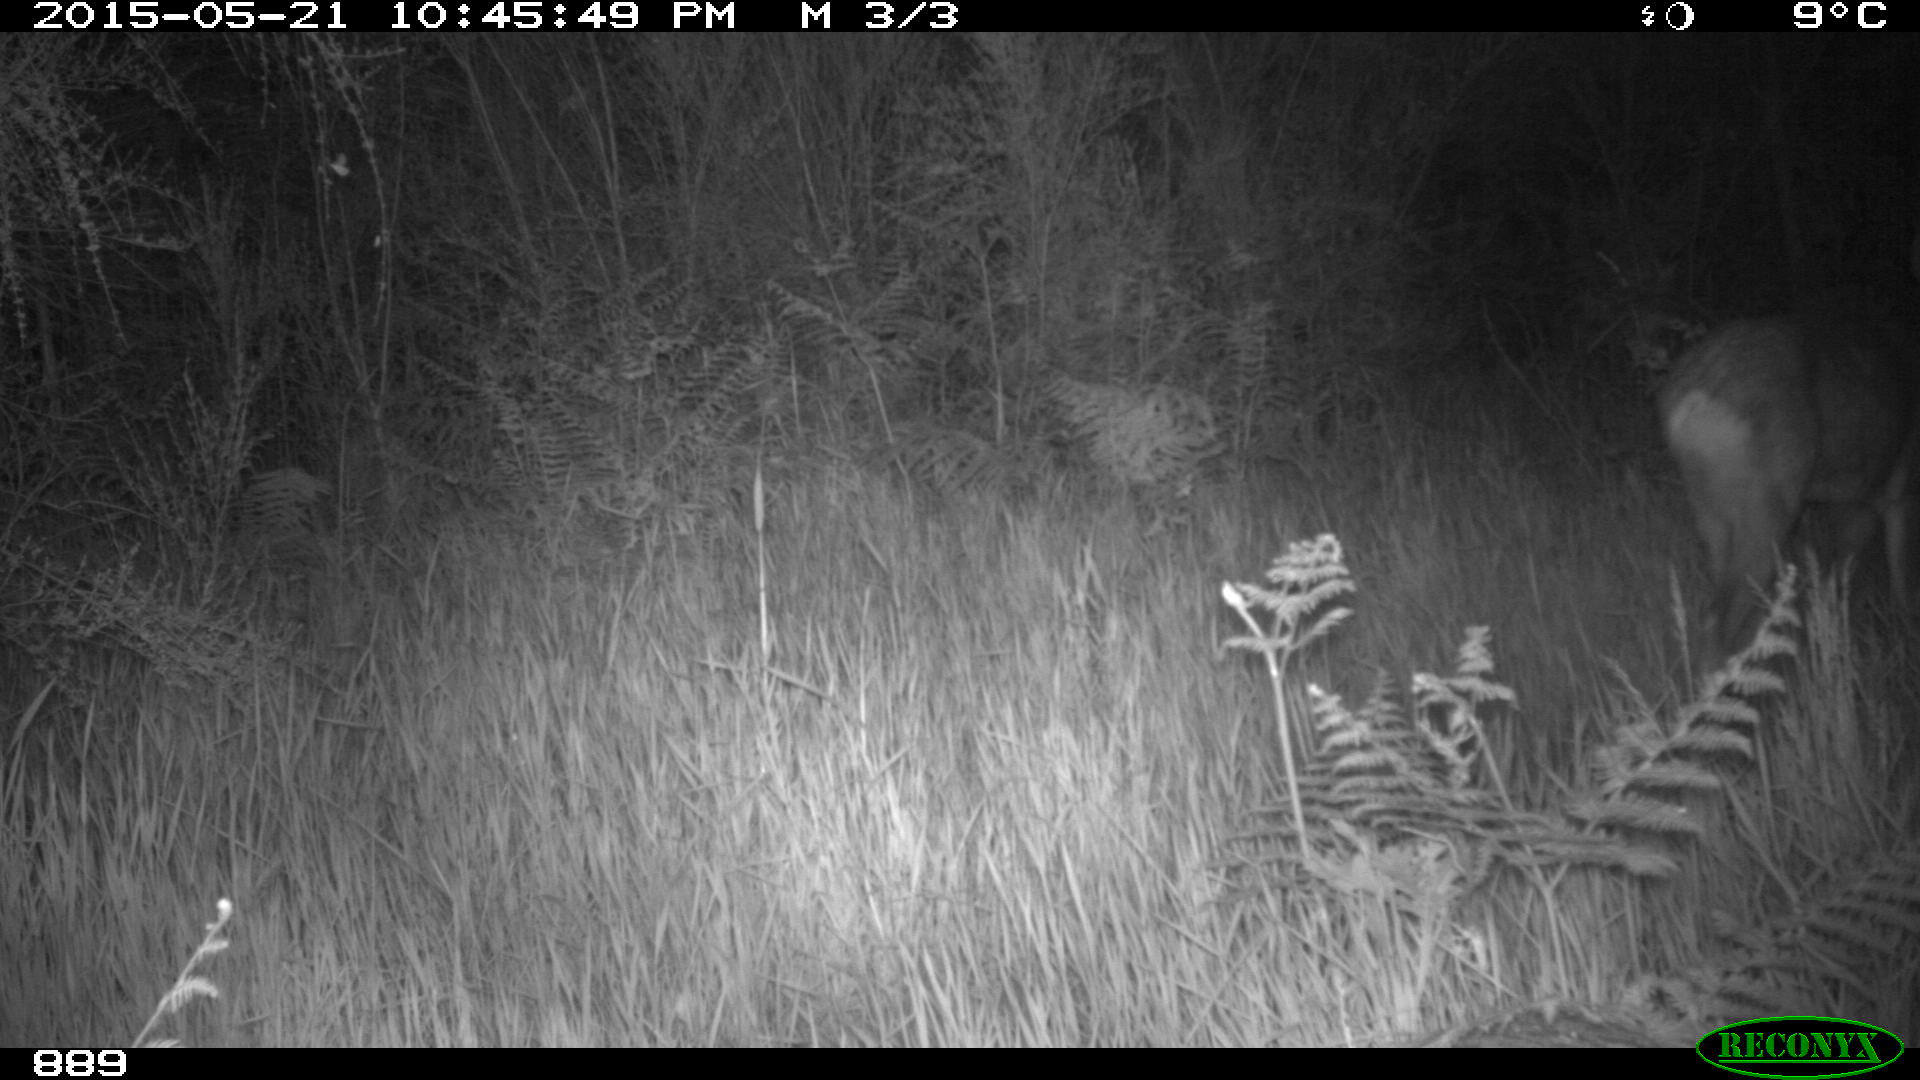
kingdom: Animalia
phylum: Chordata
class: Mammalia
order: Artiodactyla
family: Cervidae
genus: Capreolus
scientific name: Capreolus capreolus
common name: Western roe deer
